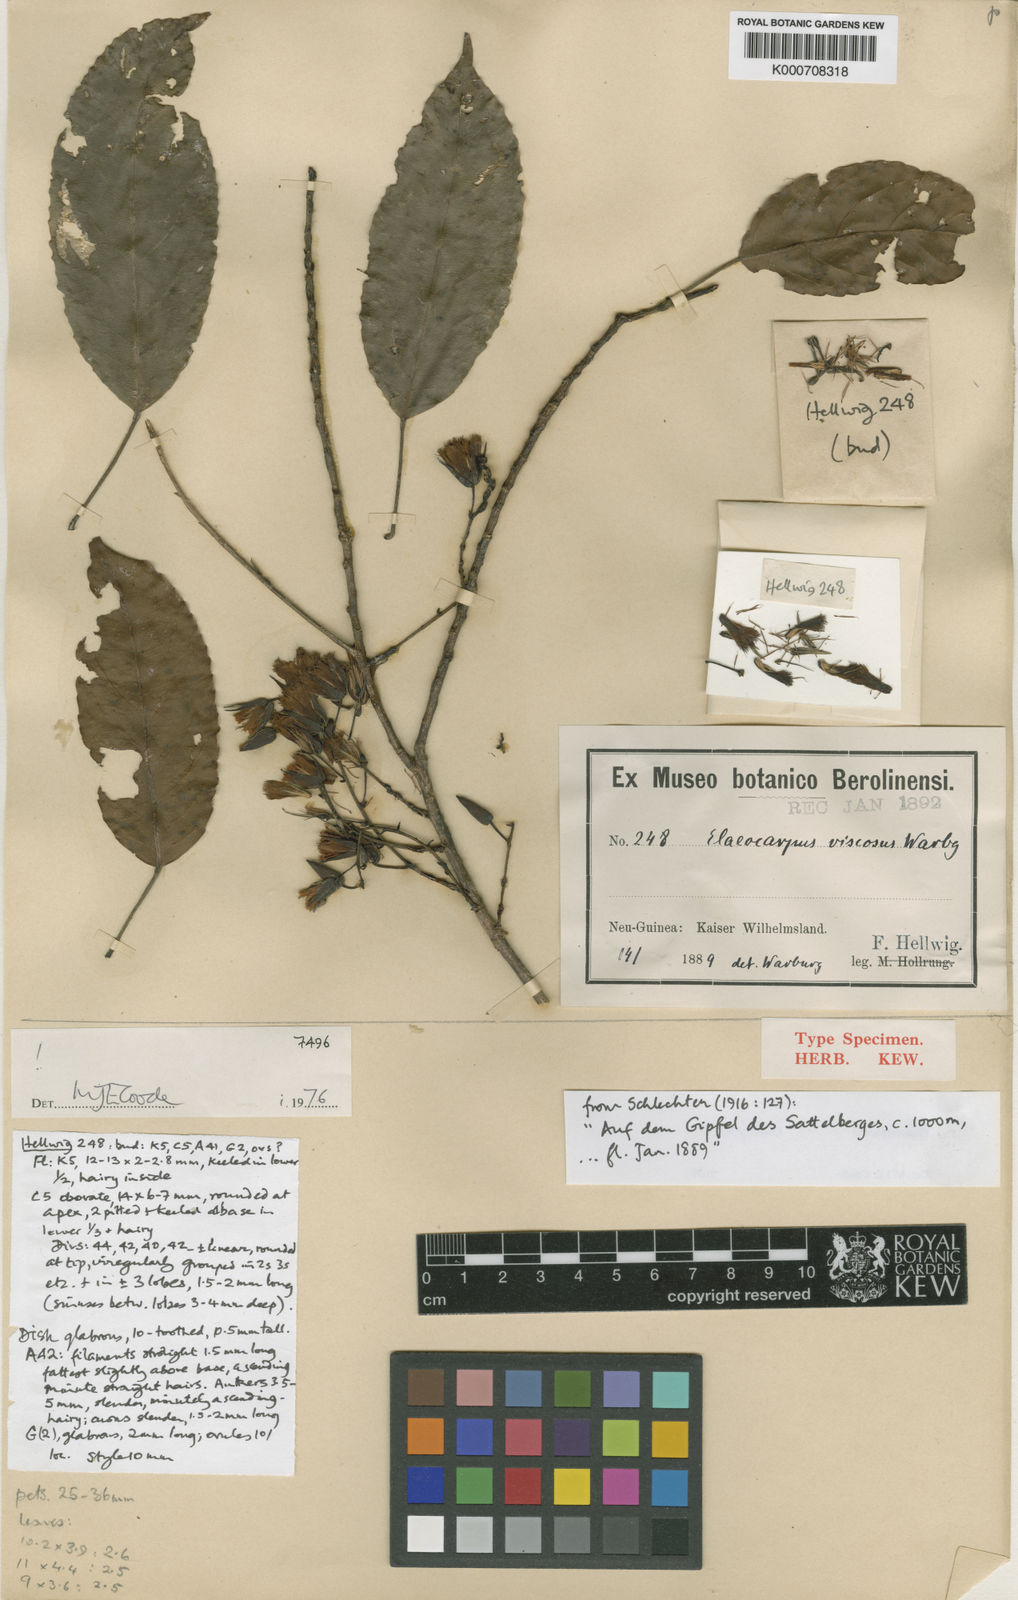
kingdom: Plantae
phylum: Tracheophyta
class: Magnoliopsida
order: Oxalidales
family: Elaeocarpaceae
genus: Elaeocarpus
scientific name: Elaeocarpus culminicola
